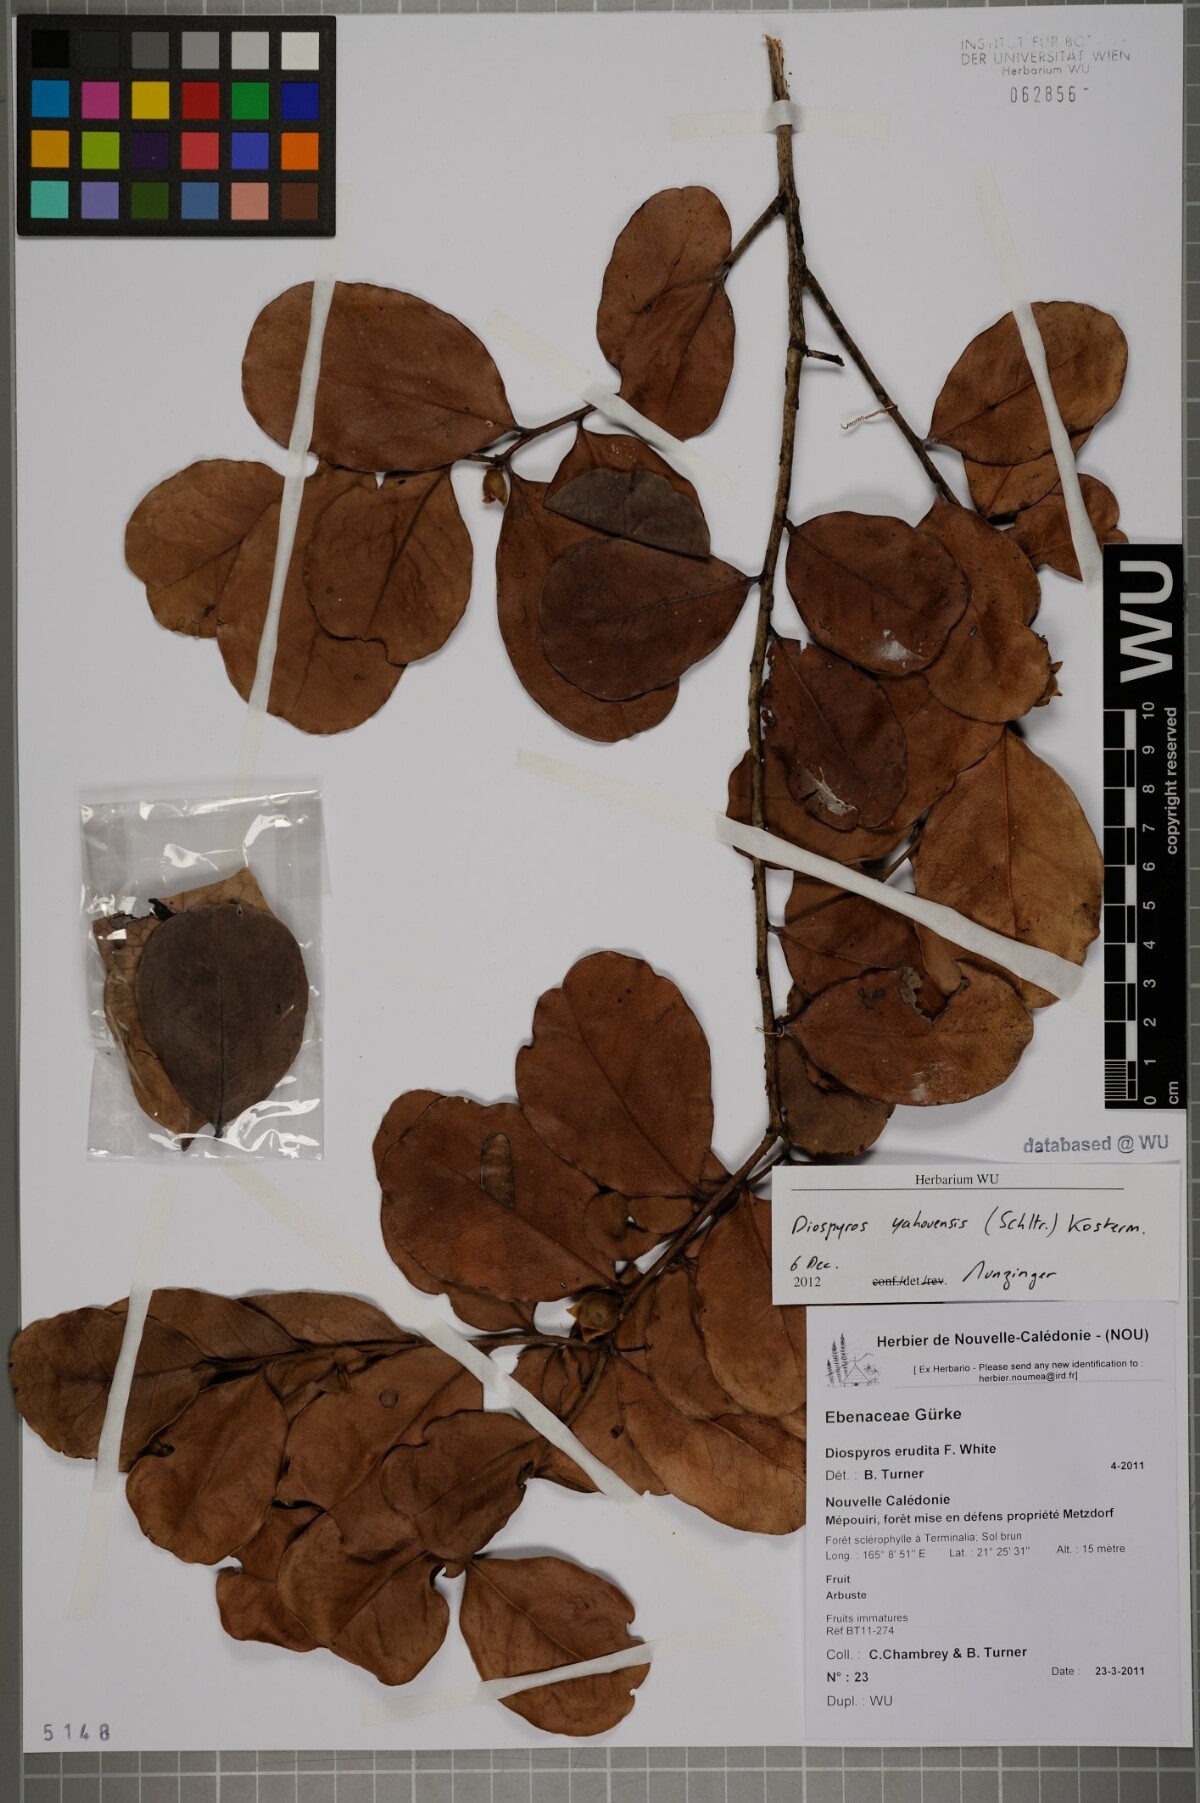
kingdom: Plantae
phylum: Tracheophyta
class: Magnoliopsida
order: Ericales
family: Ebenaceae
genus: Diospyros
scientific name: Diospyros
